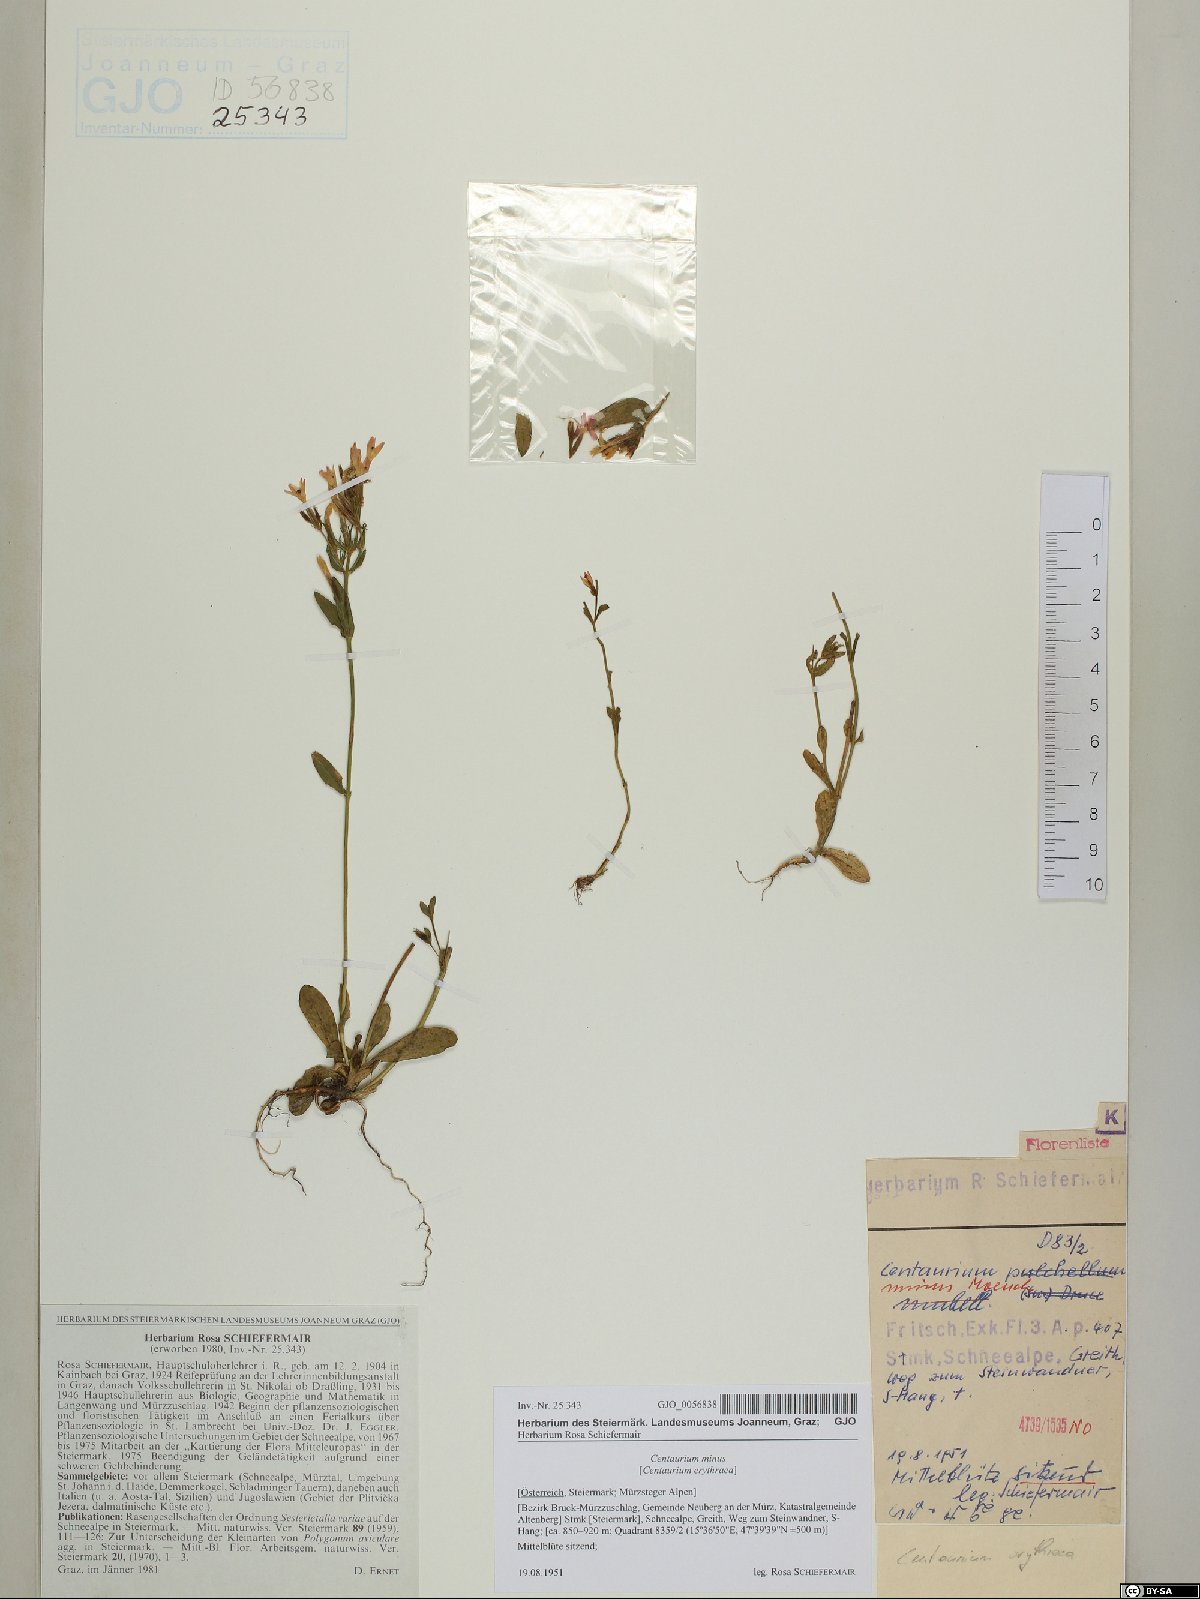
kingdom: Plantae
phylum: Tracheophyta
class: Magnoliopsida
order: Gentianales
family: Gentianaceae
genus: Centaurium
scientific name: Centaurium erythraea
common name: Common centaury
